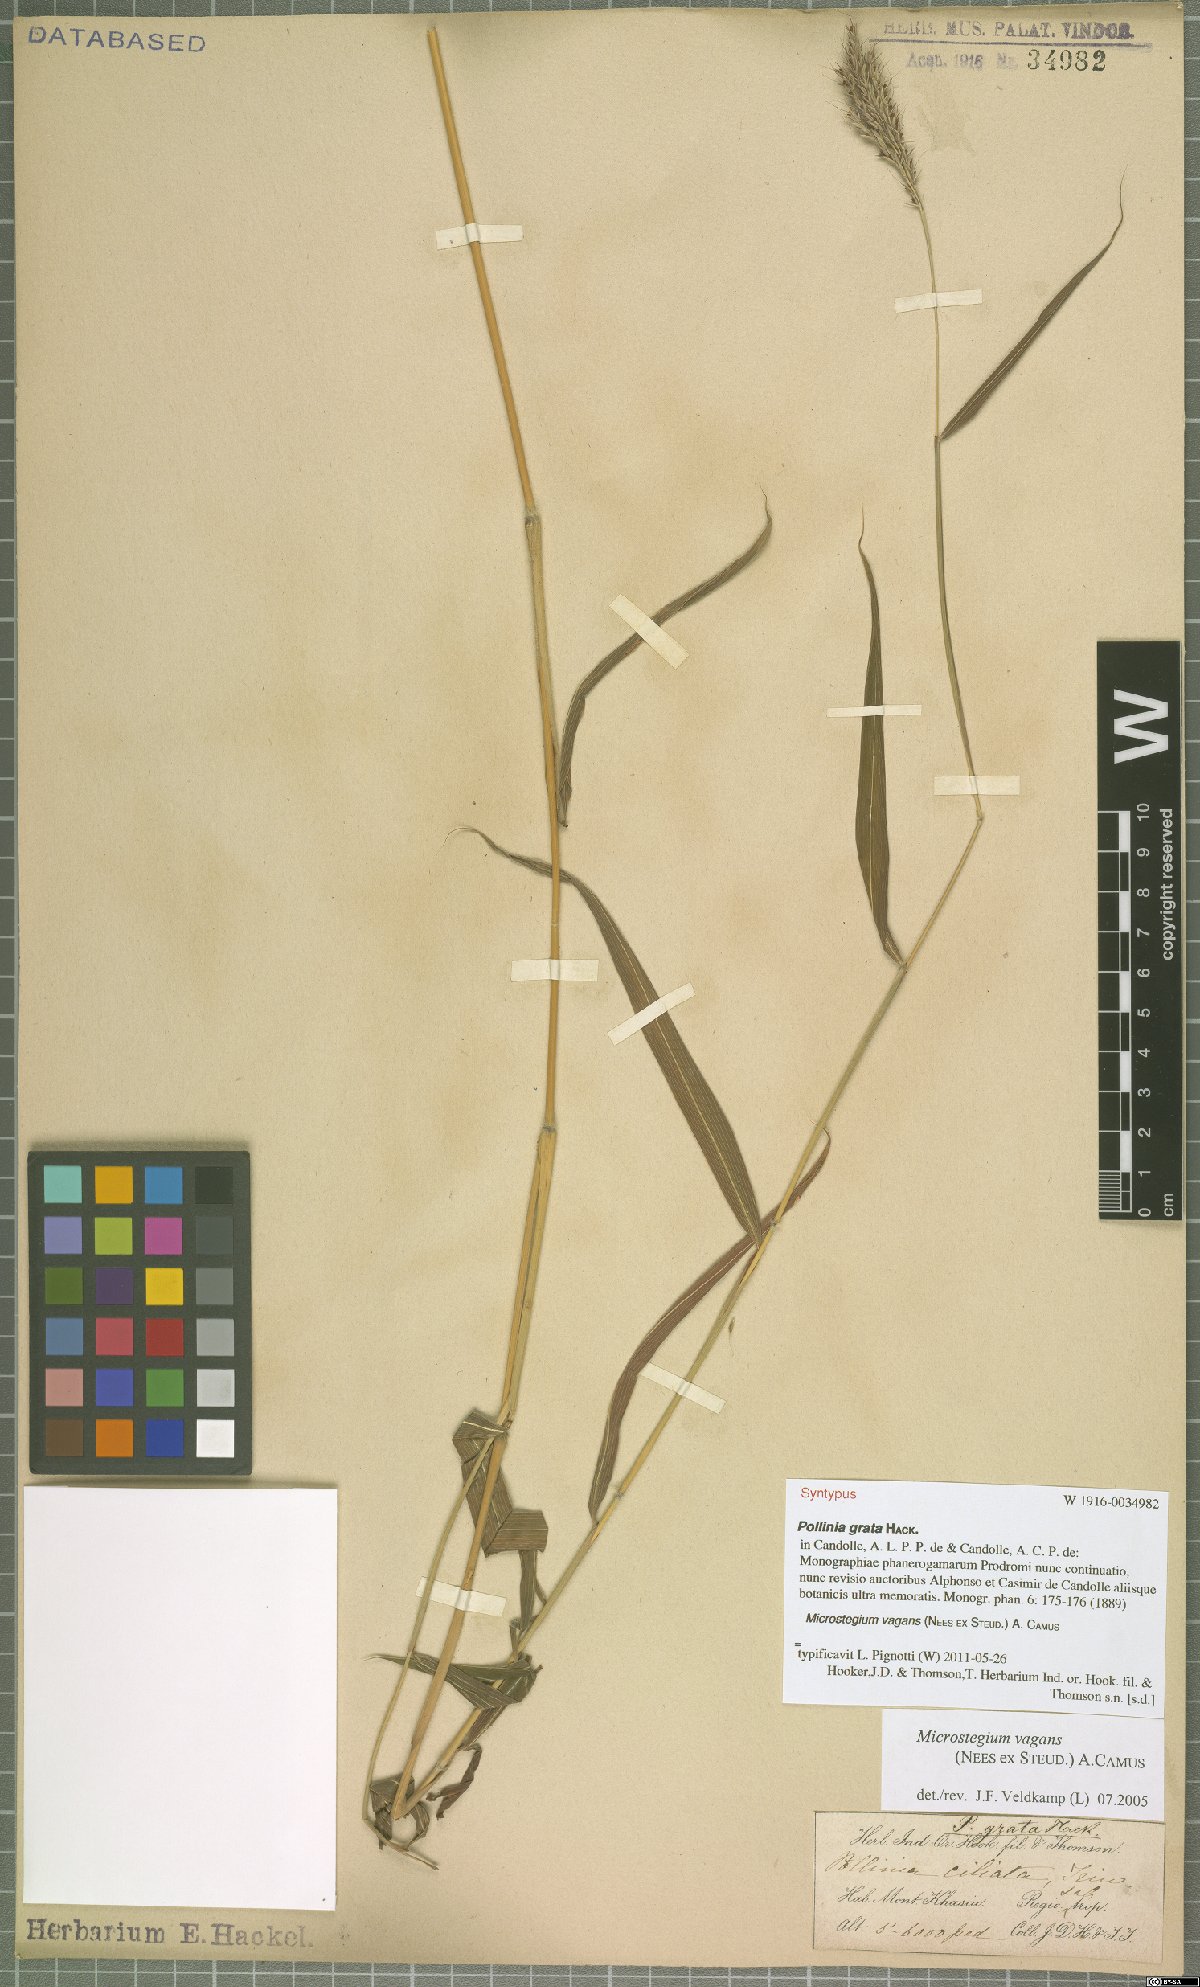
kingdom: Plantae
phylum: Tracheophyta
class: Liliopsida
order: Poales
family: Poaceae
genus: Microstegium
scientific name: Microstegium fasciculatum
